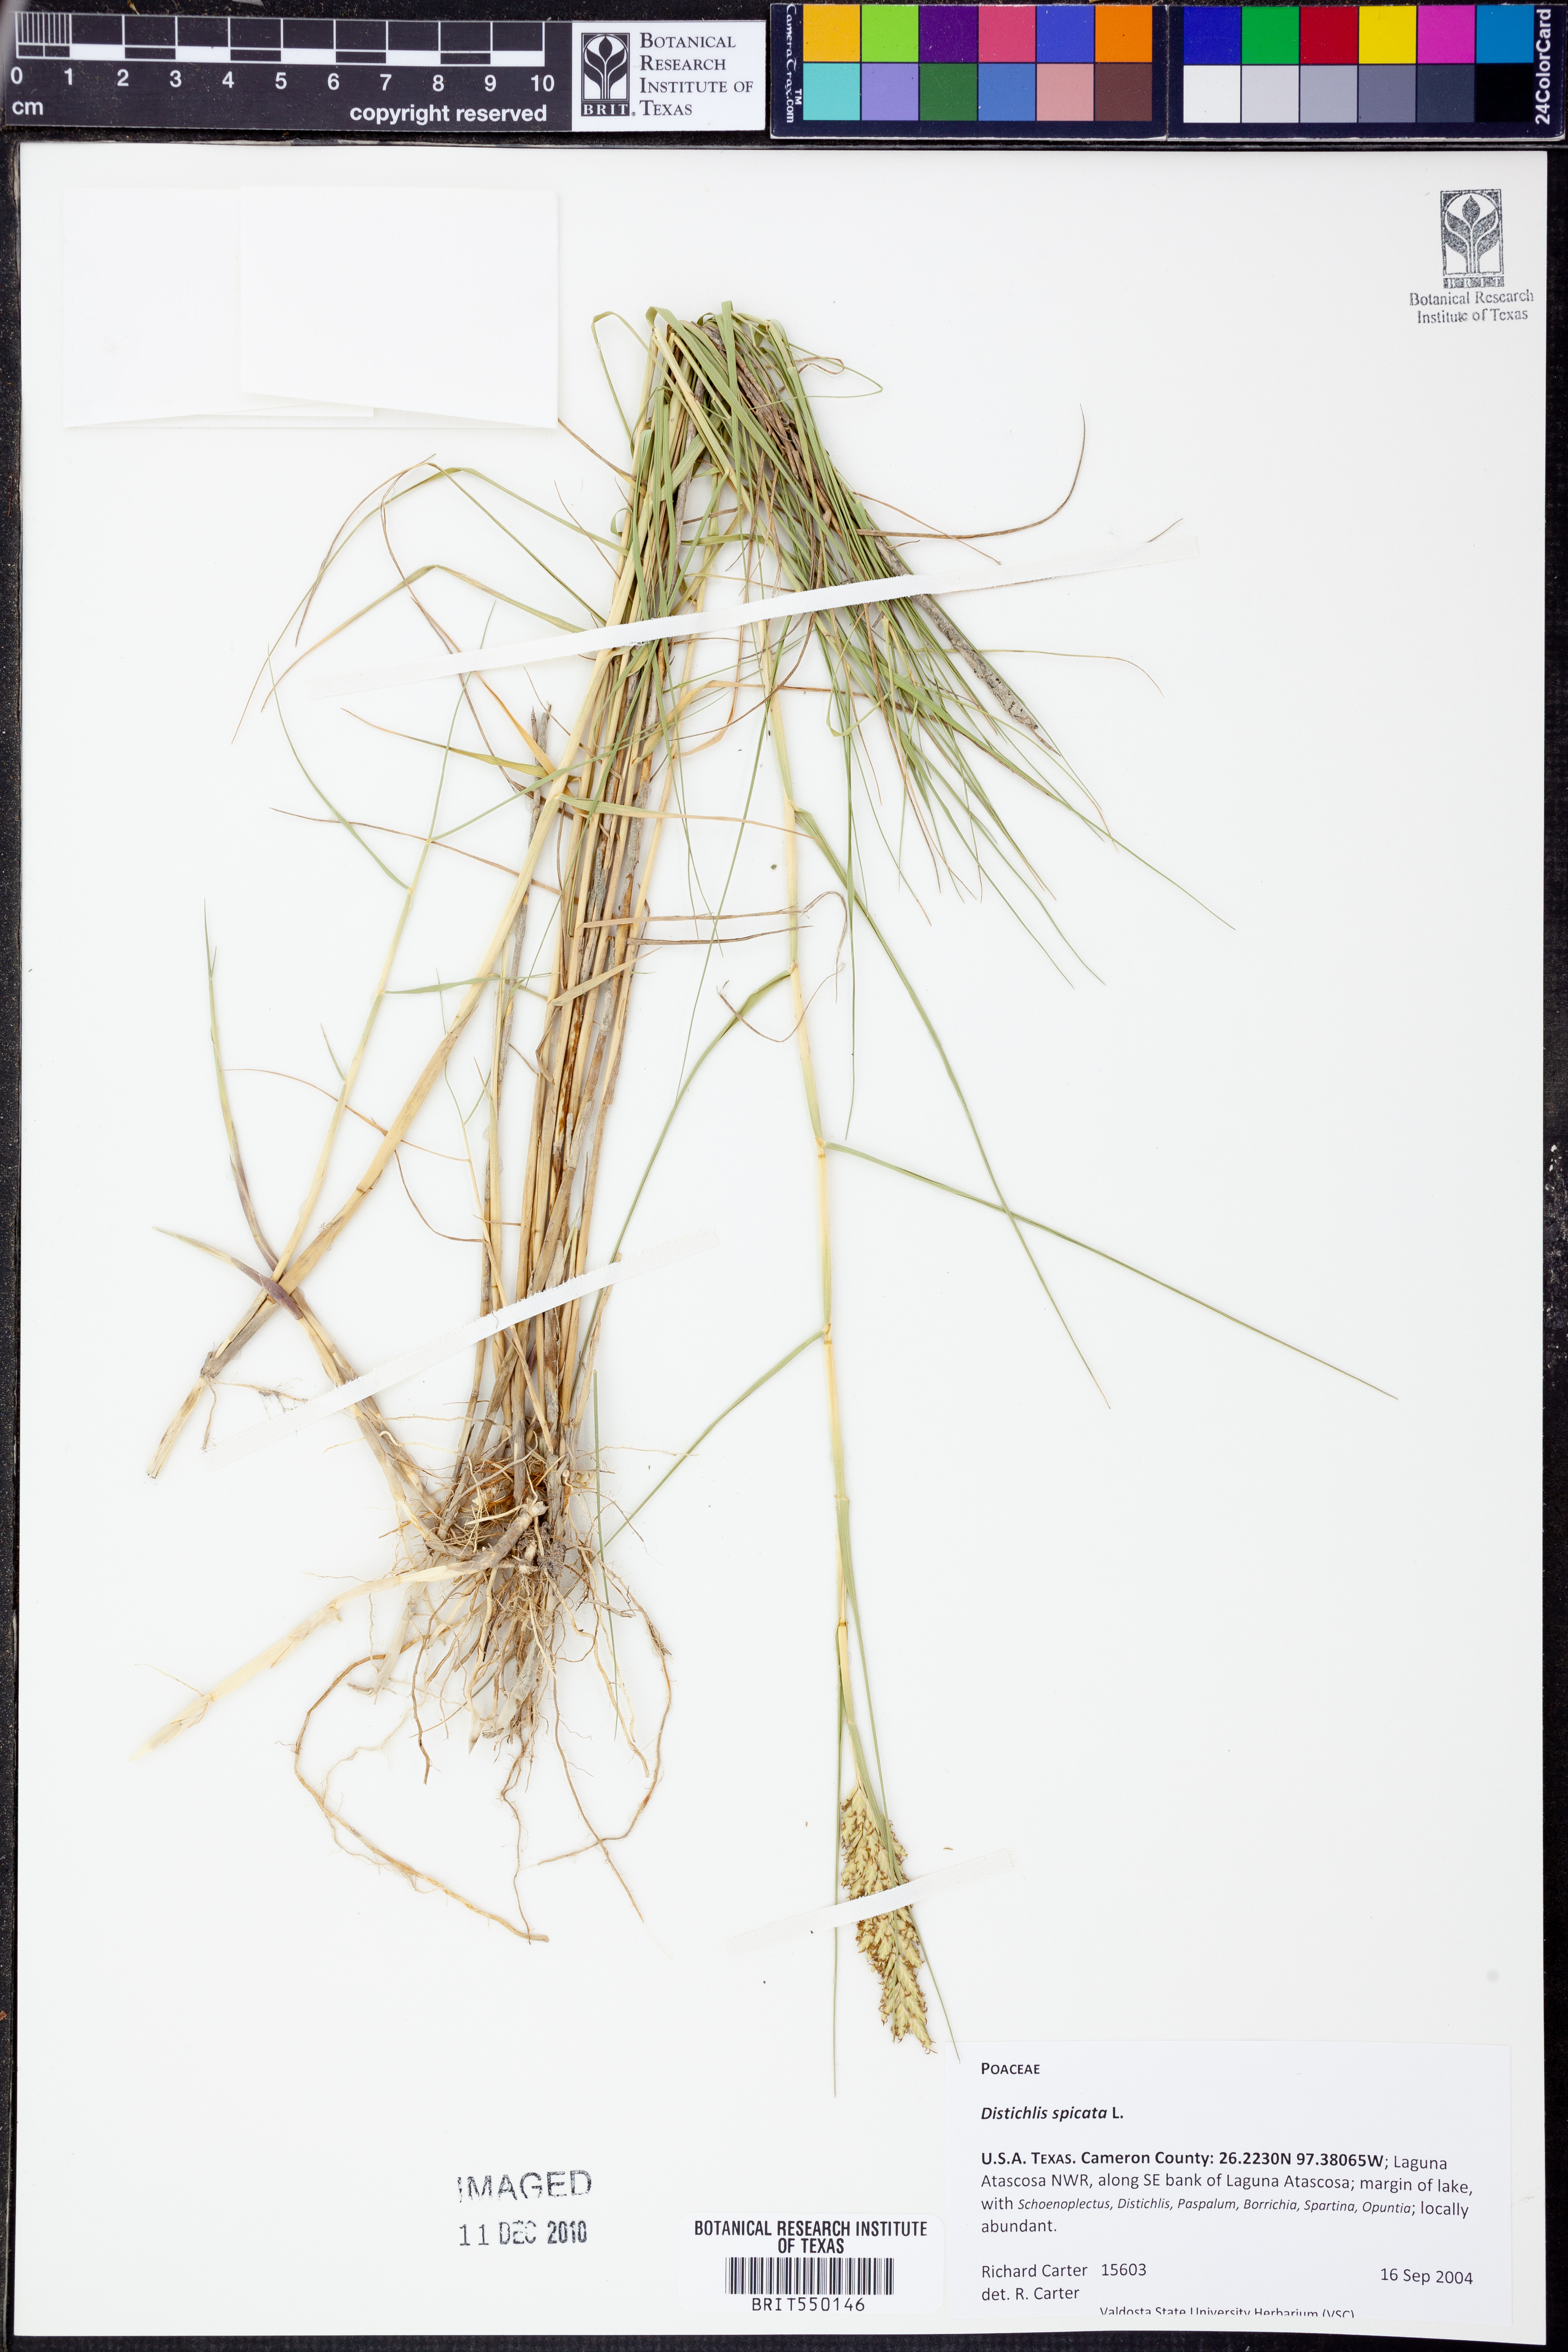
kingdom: Plantae
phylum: Tracheophyta
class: Liliopsida
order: Poales
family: Poaceae
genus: Distichlis
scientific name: Distichlis spicata
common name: Saltgrass
